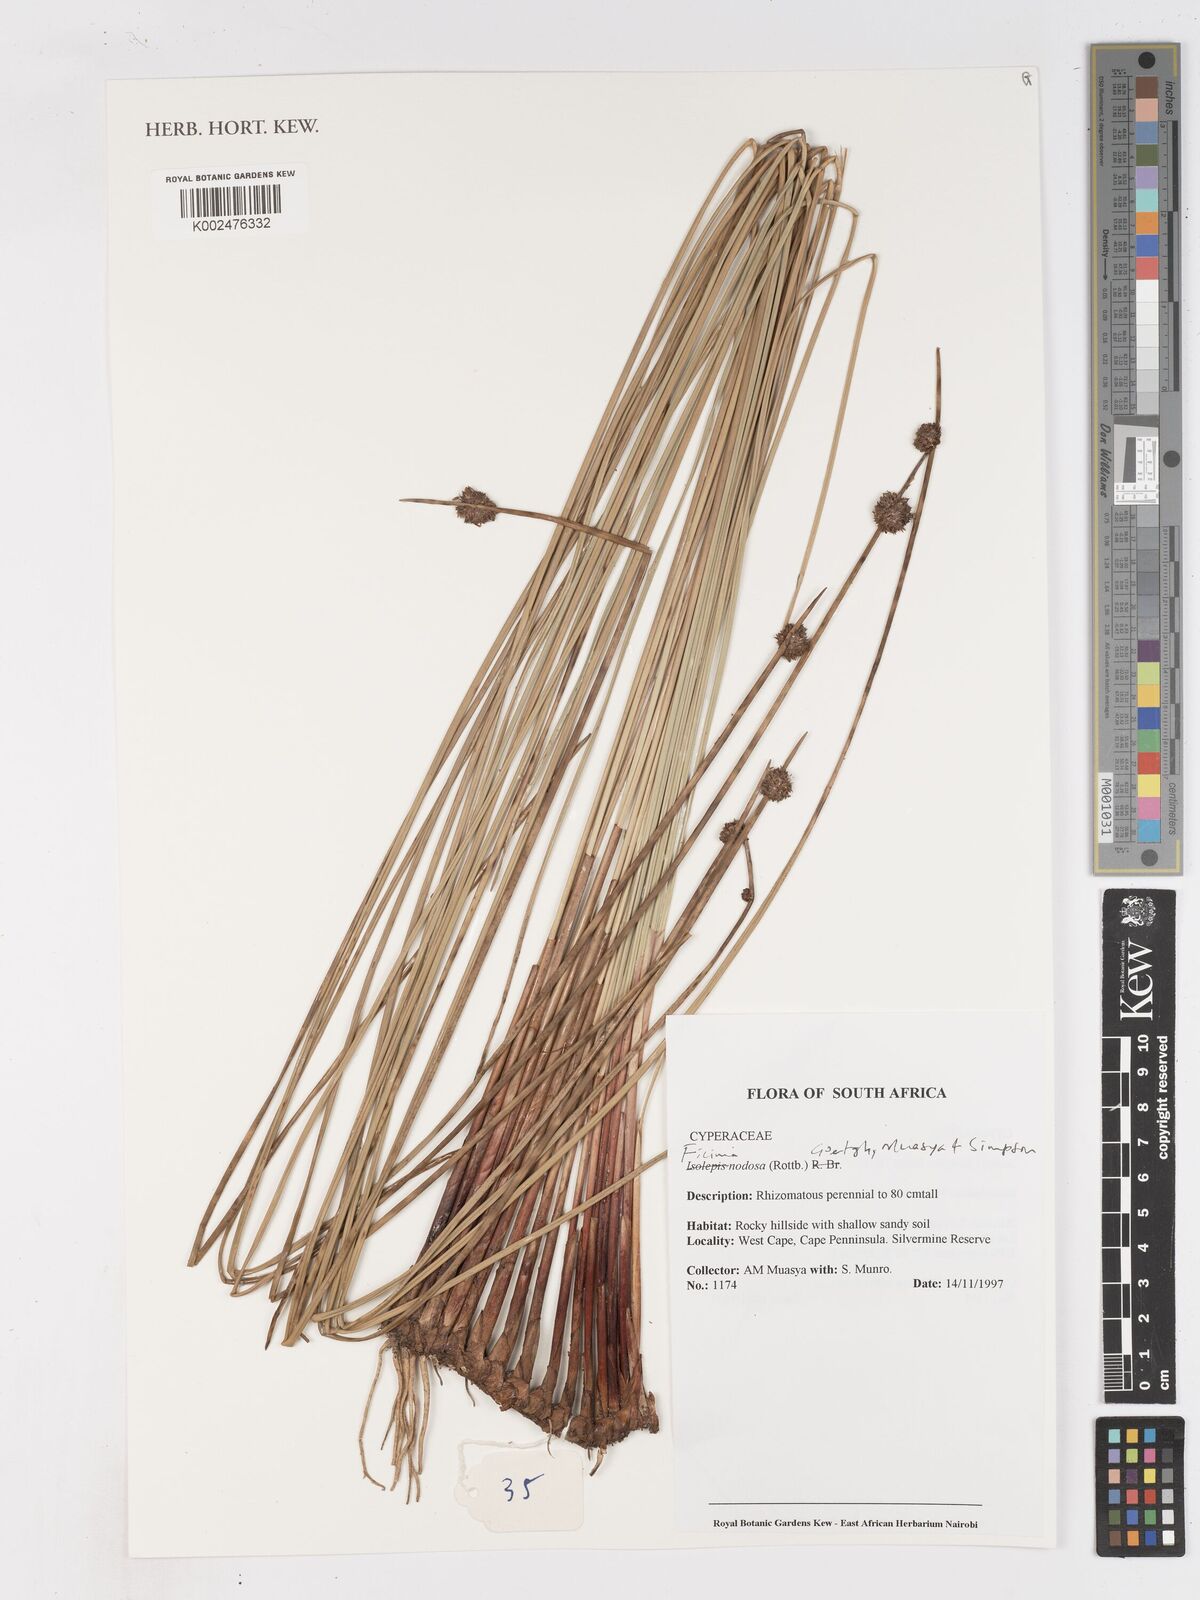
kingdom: Plantae
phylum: Tracheophyta
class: Liliopsida
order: Poales
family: Cyperaceae
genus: Ficinia
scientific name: Ficinia nodosa
